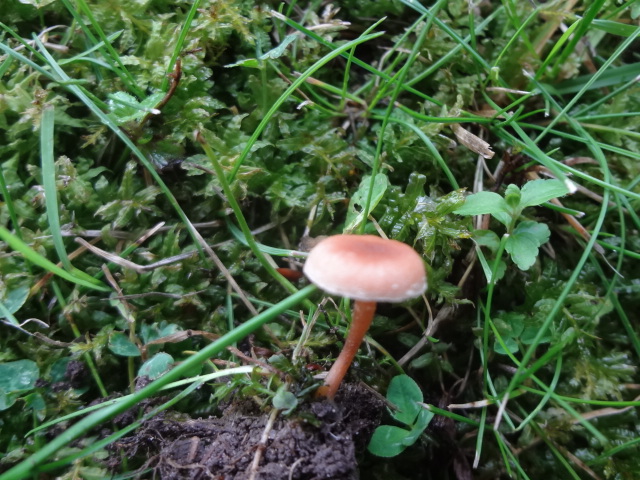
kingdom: Fungi
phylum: Basidiomycota
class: Agaricomycetes
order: Agaricales
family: Tubariaceae
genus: Tubaria
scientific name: Tubaria furfuracea
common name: kliddet fnughat
